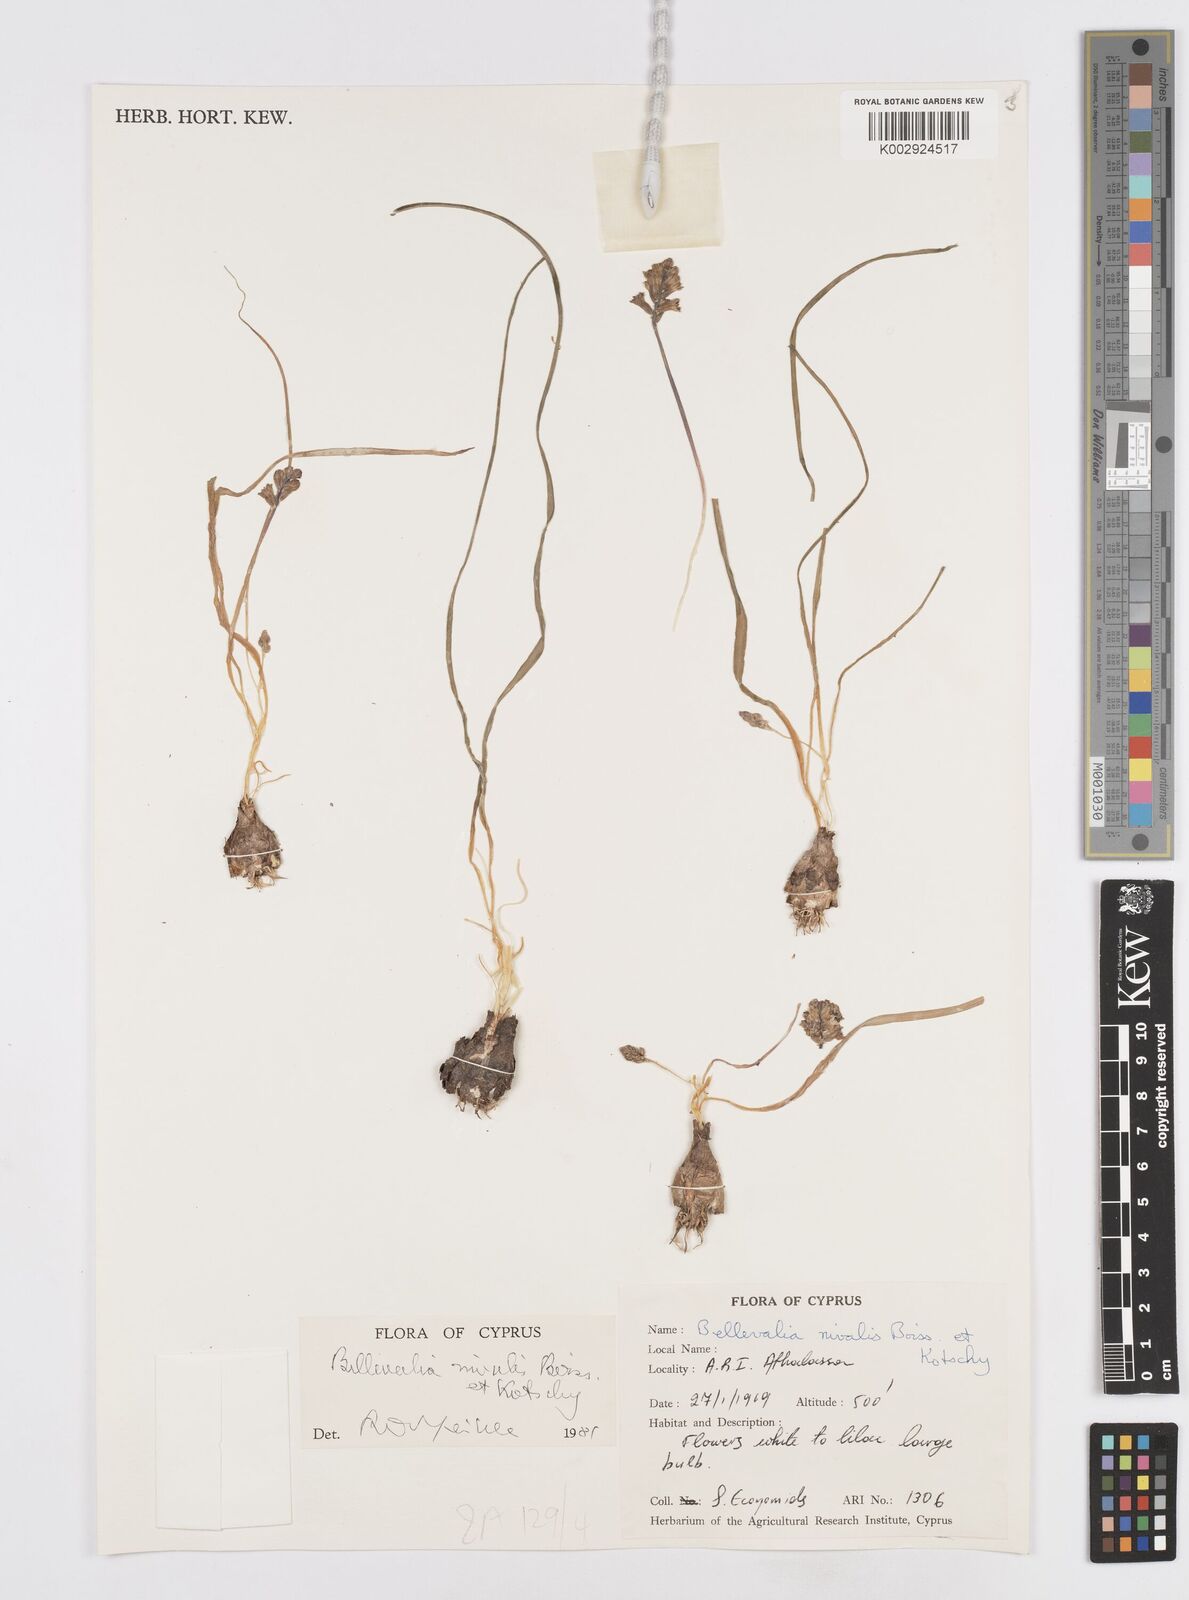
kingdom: Plantae
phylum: Tracheophyta
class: Liliopsida
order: Asparagales
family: Asparagaceae
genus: Bellevalia
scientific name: Bellevalia nivalis
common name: Snow bellevalia
